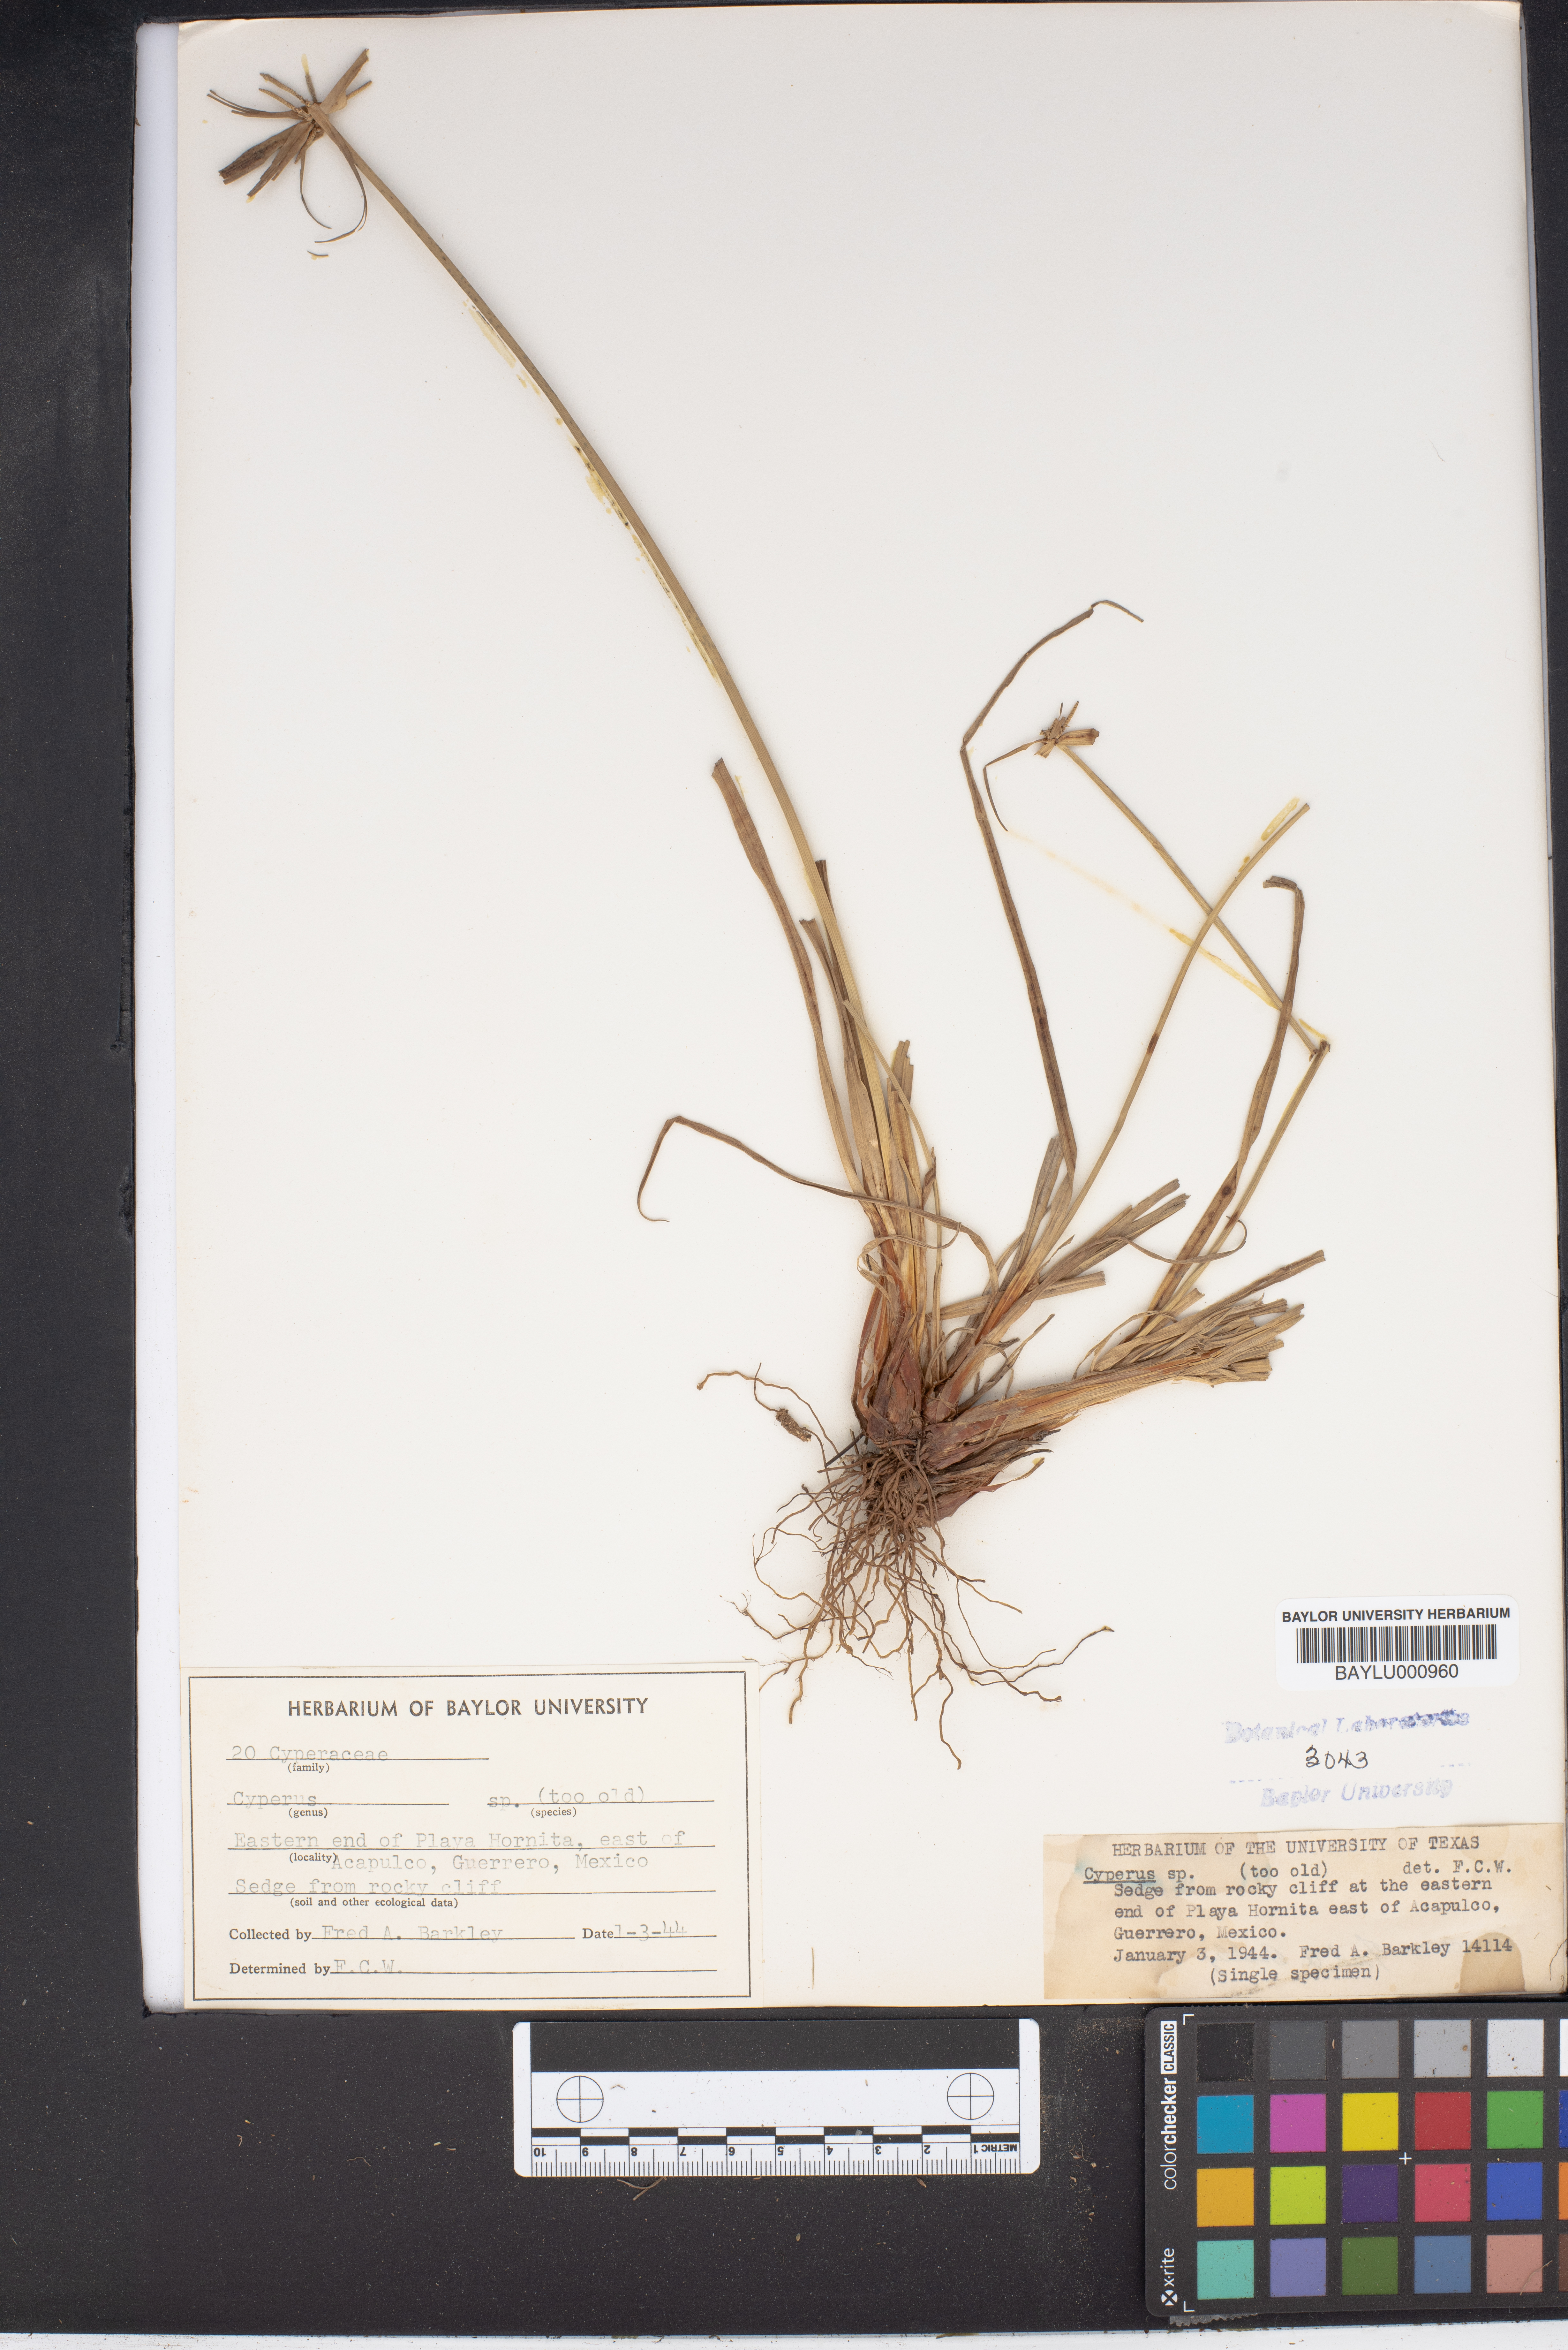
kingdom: Plantae
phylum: Tracheophyta
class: Liliopsida
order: Poales
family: Cyperaceae
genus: Cyperus
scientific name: Cyperus
